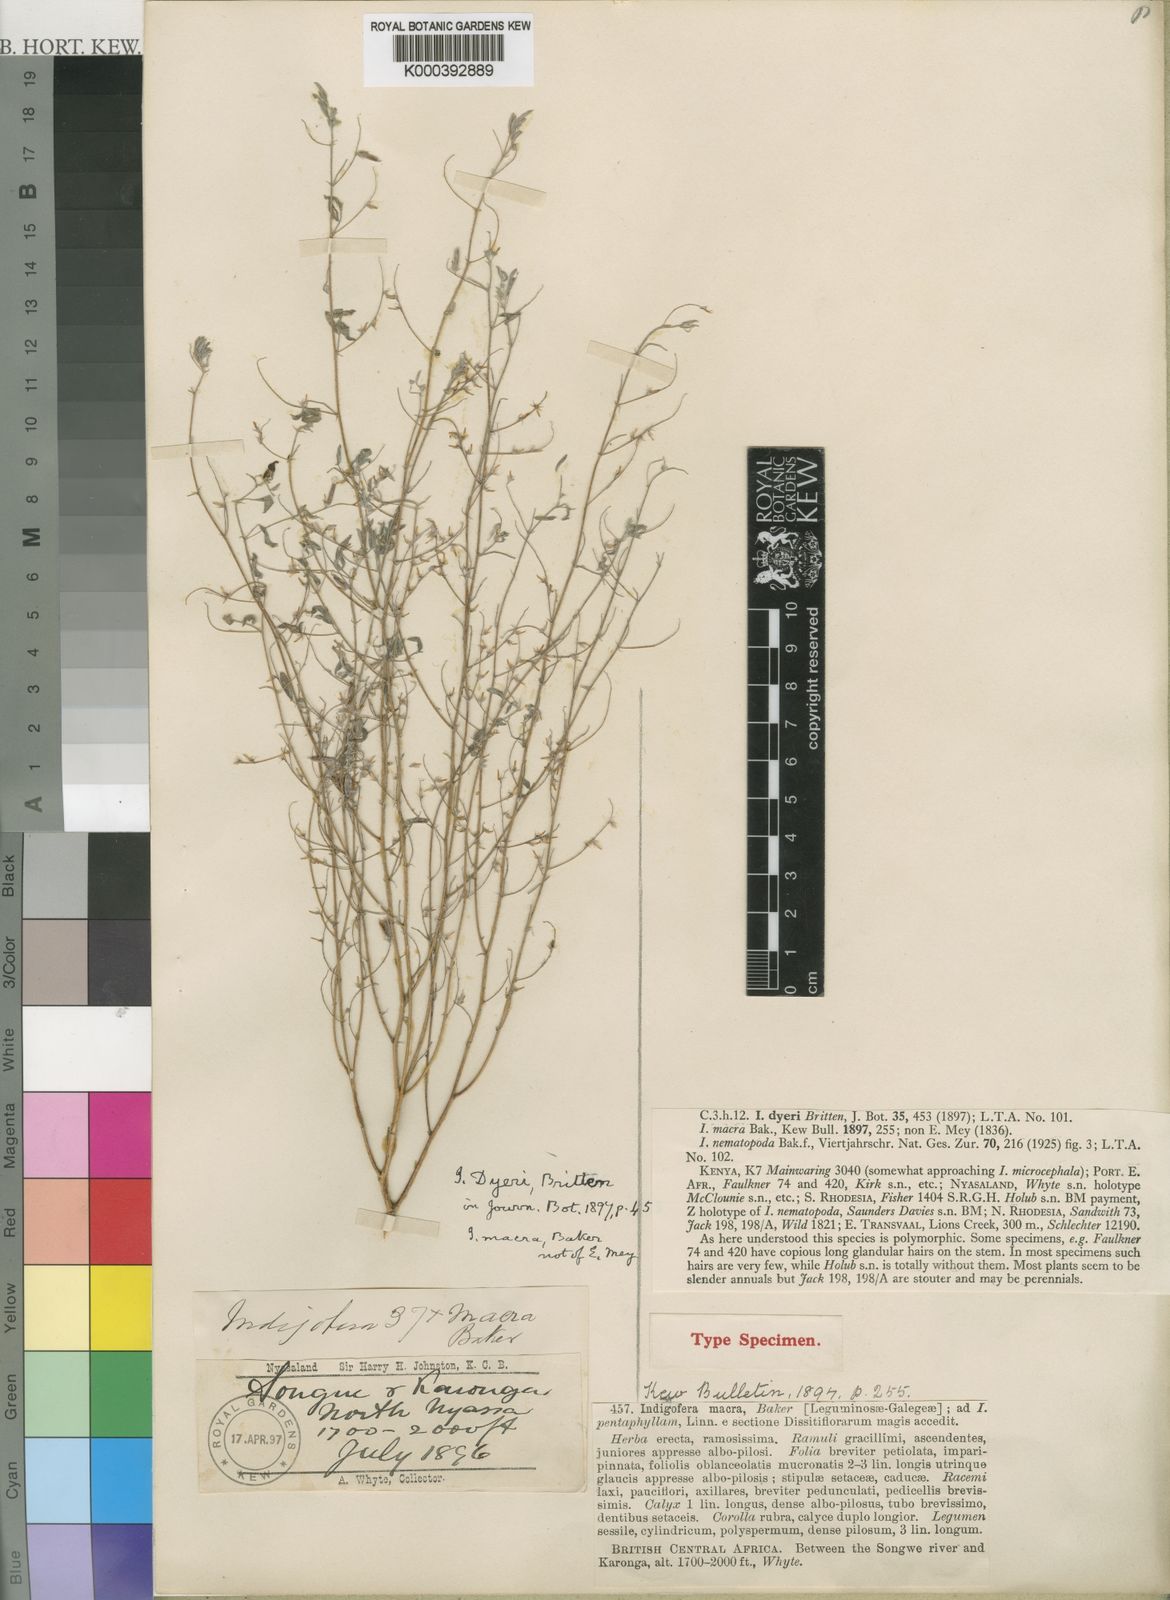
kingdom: Plantae
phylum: Tracheophyta
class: Magnoliopsida
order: Fabales
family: Fabaceae
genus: Indigofera
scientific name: Indigofera dyeri
